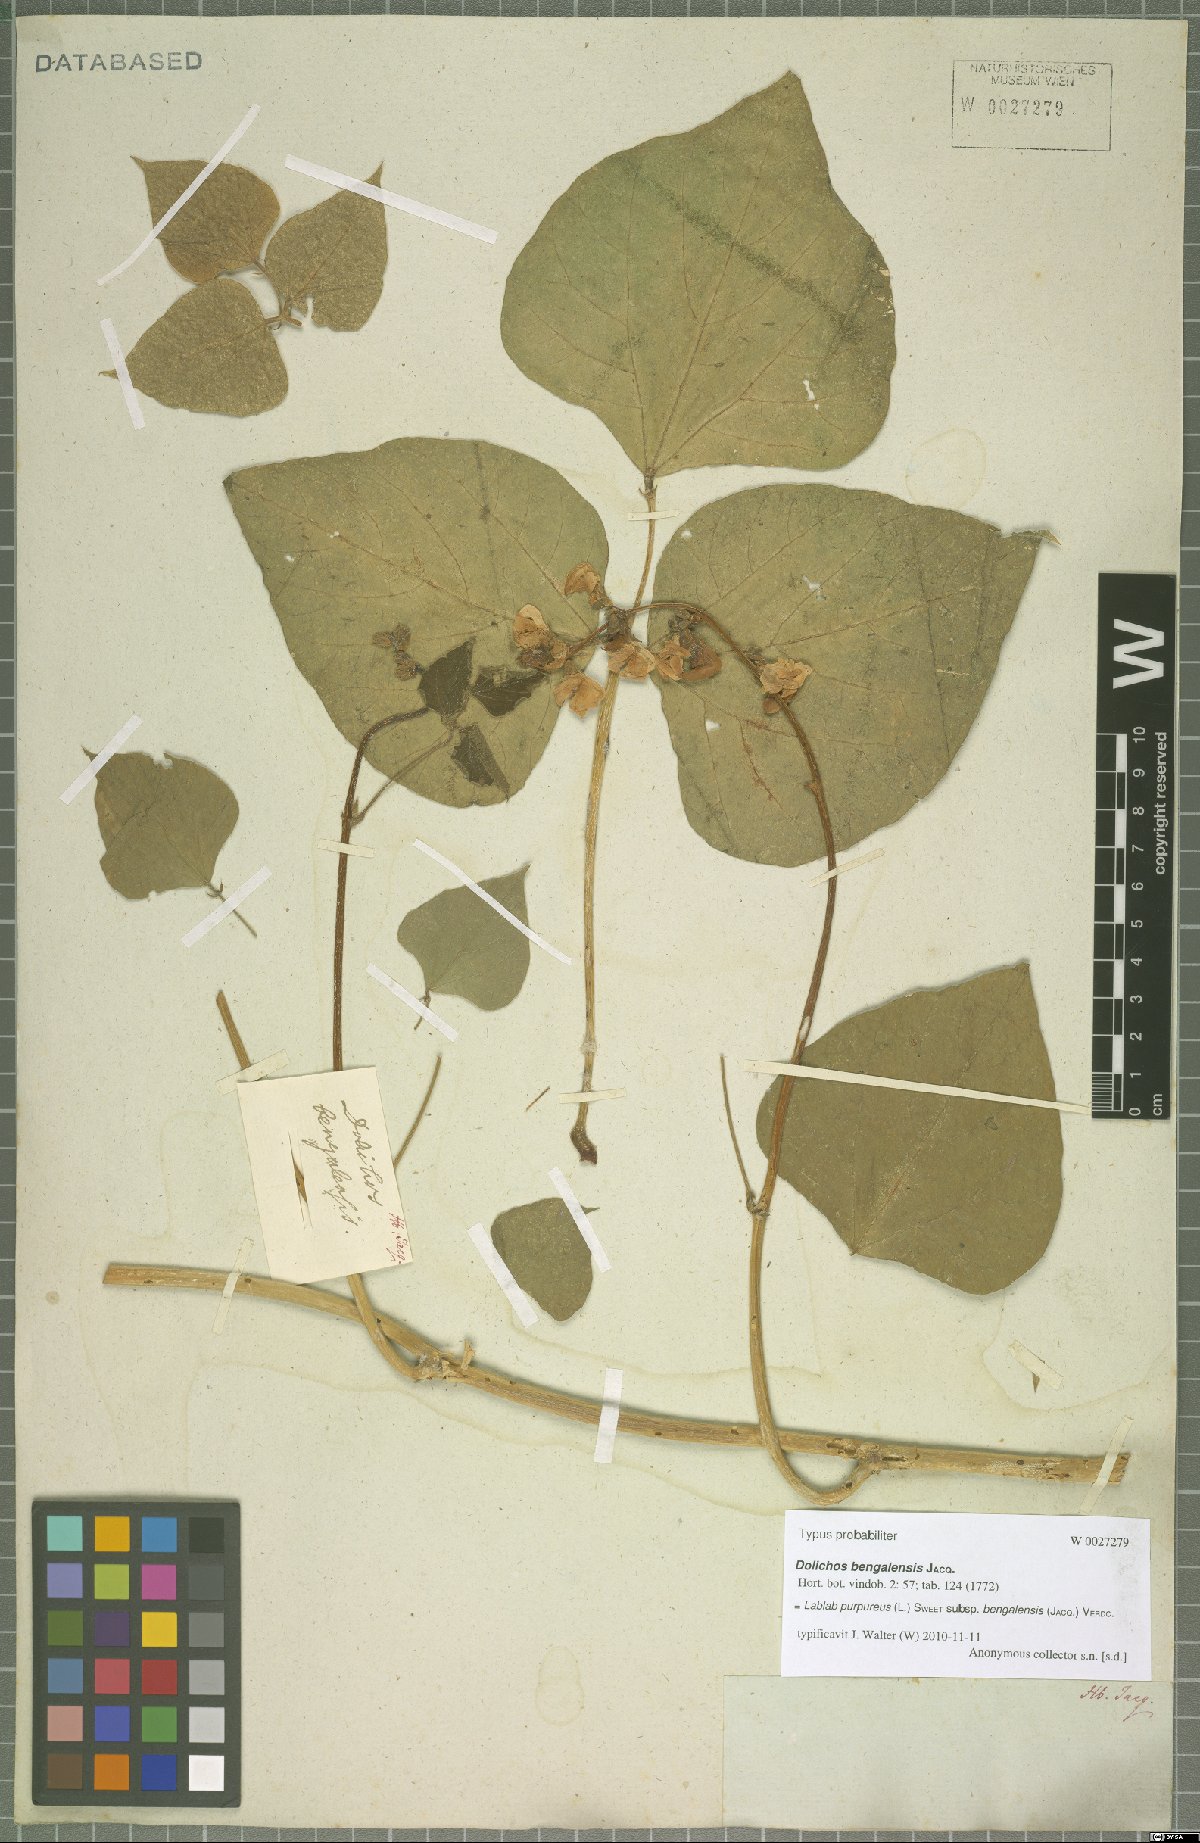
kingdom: Plantae
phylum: Tracheophyta
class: Magnoliopsida
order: Fabales
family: Fabaceae
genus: Lablab
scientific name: Lablab purpureus
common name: Lablab-bean
